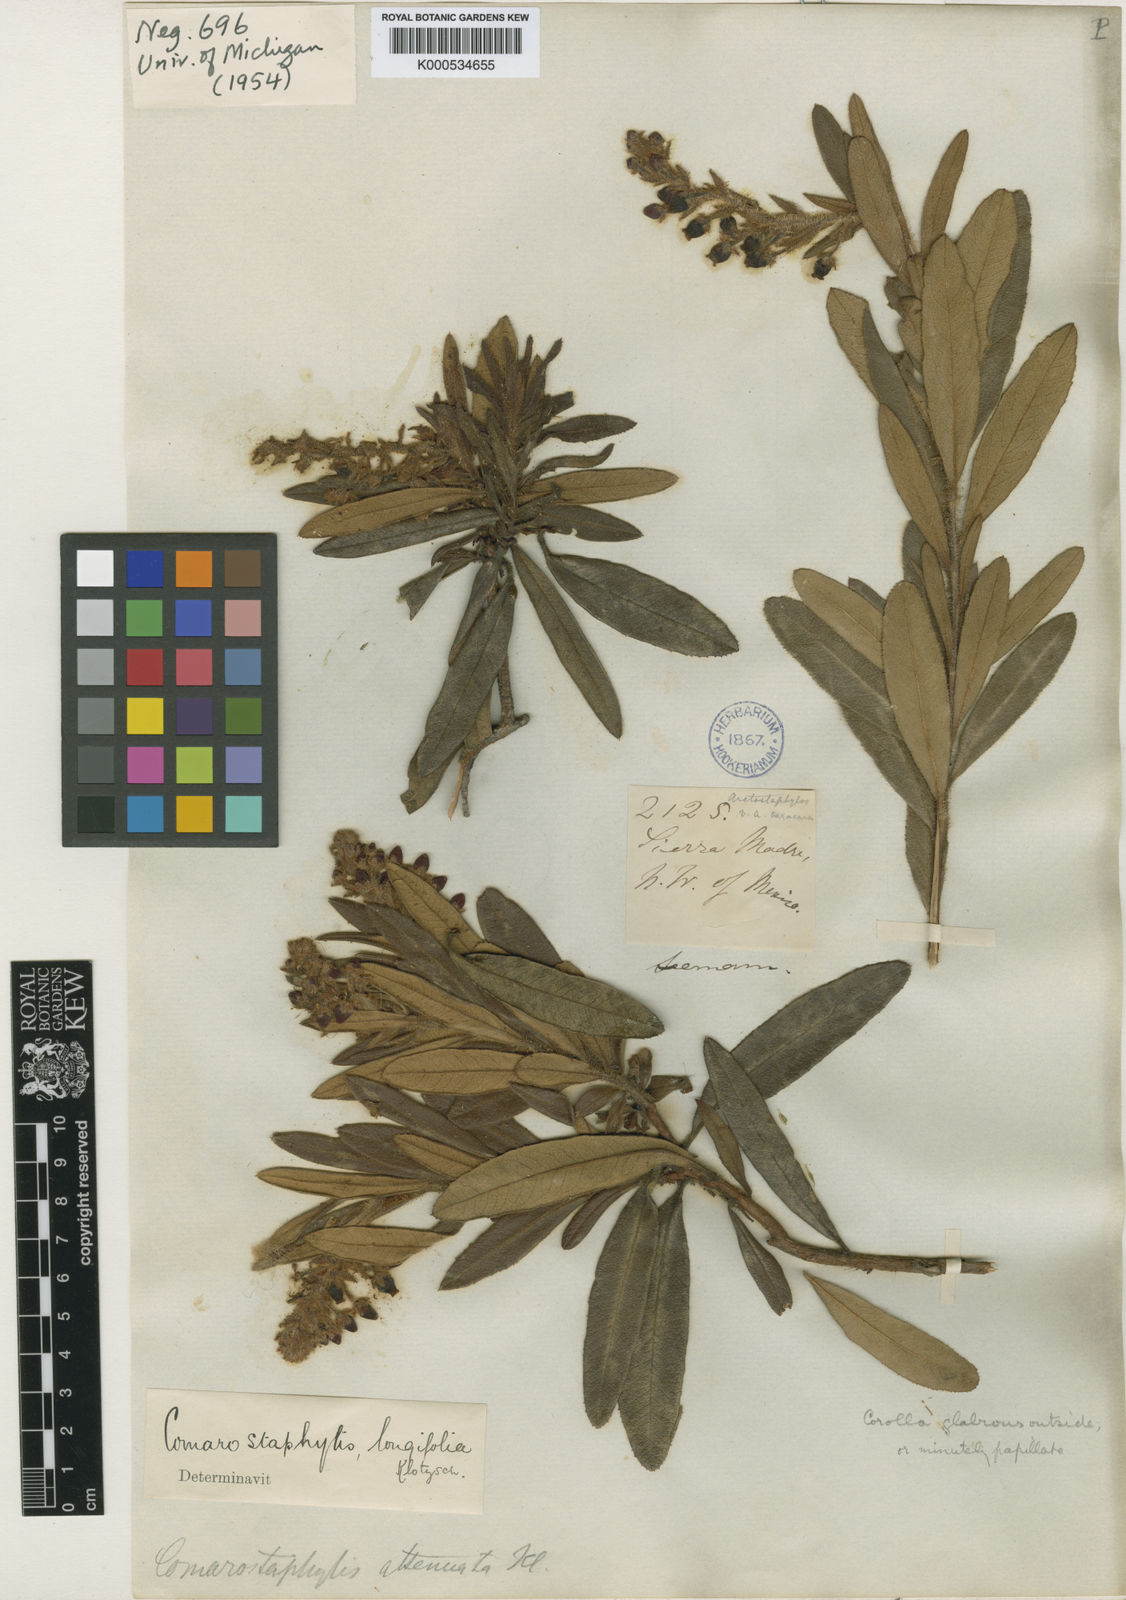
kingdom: Plantae
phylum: Tracheophyta
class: Magnoliopsida
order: Ericales
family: Ericaceae
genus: Comarostaphylis
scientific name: Comarostaphylis longifolia
